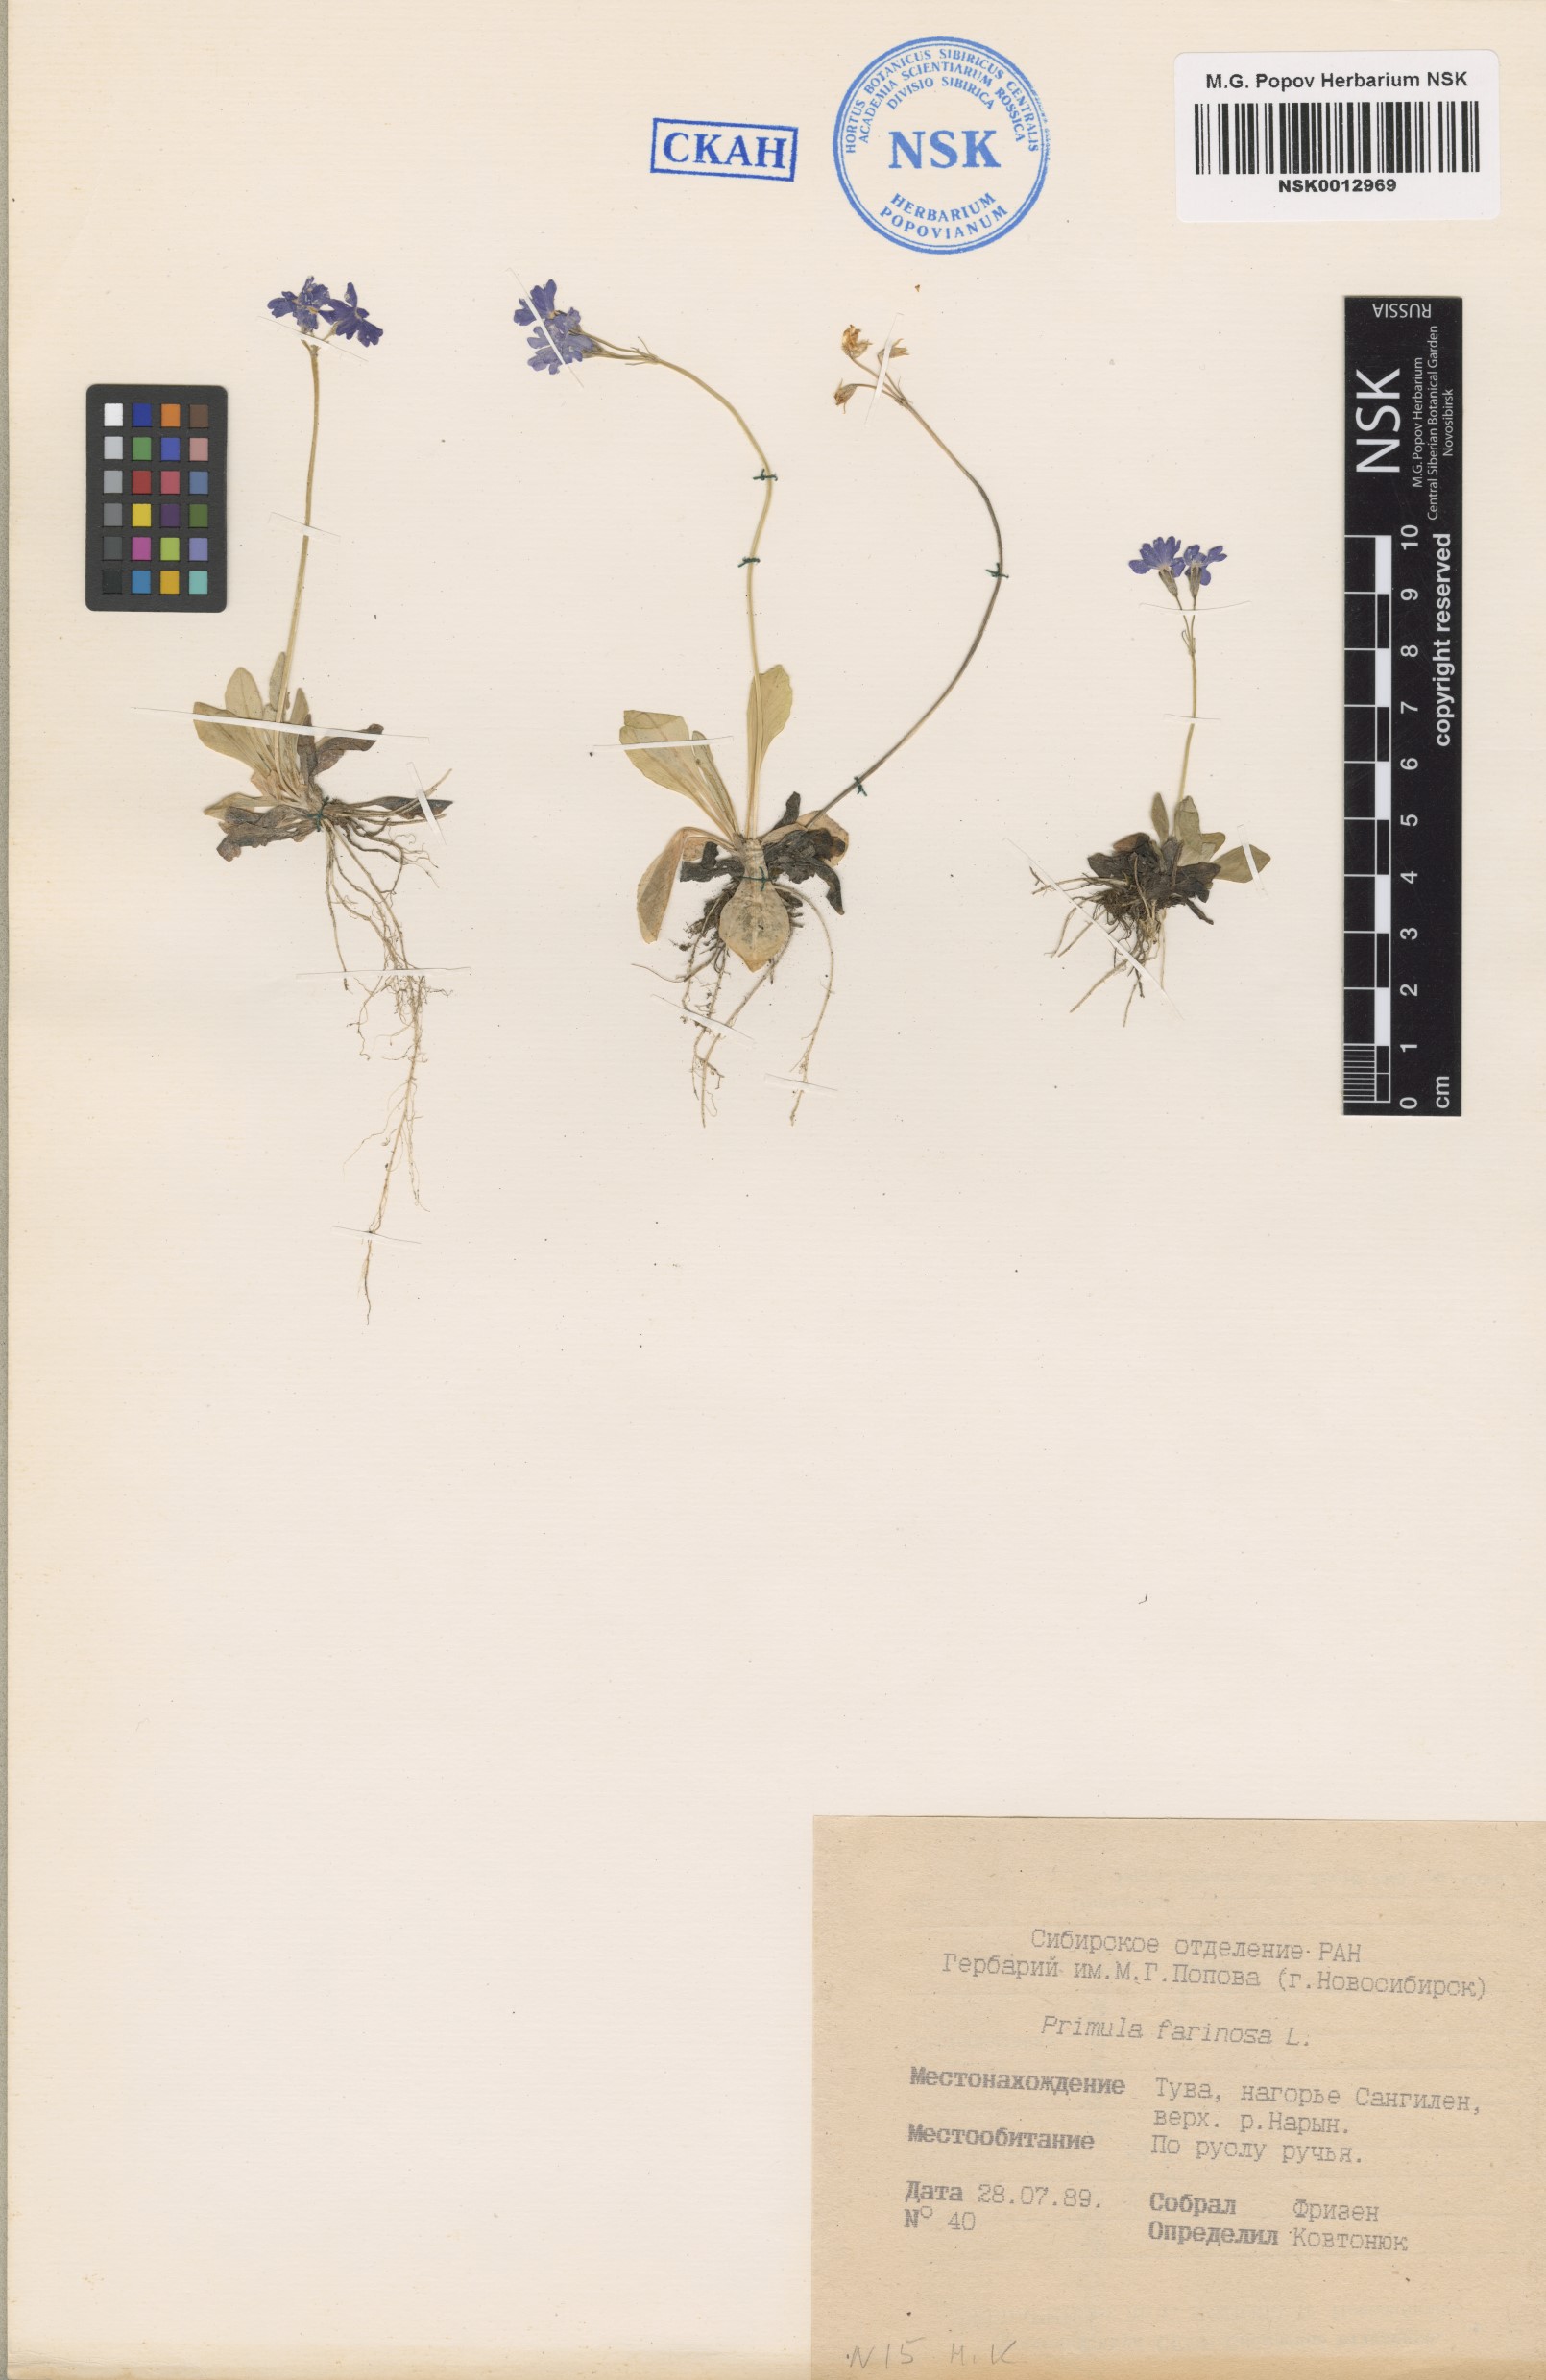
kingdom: Plantae
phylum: Tracheophyta
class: Magnoliopsida
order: Ericales
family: Primulaceae
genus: Primula
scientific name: Primula farinosa
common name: Bird's-eye primrose
